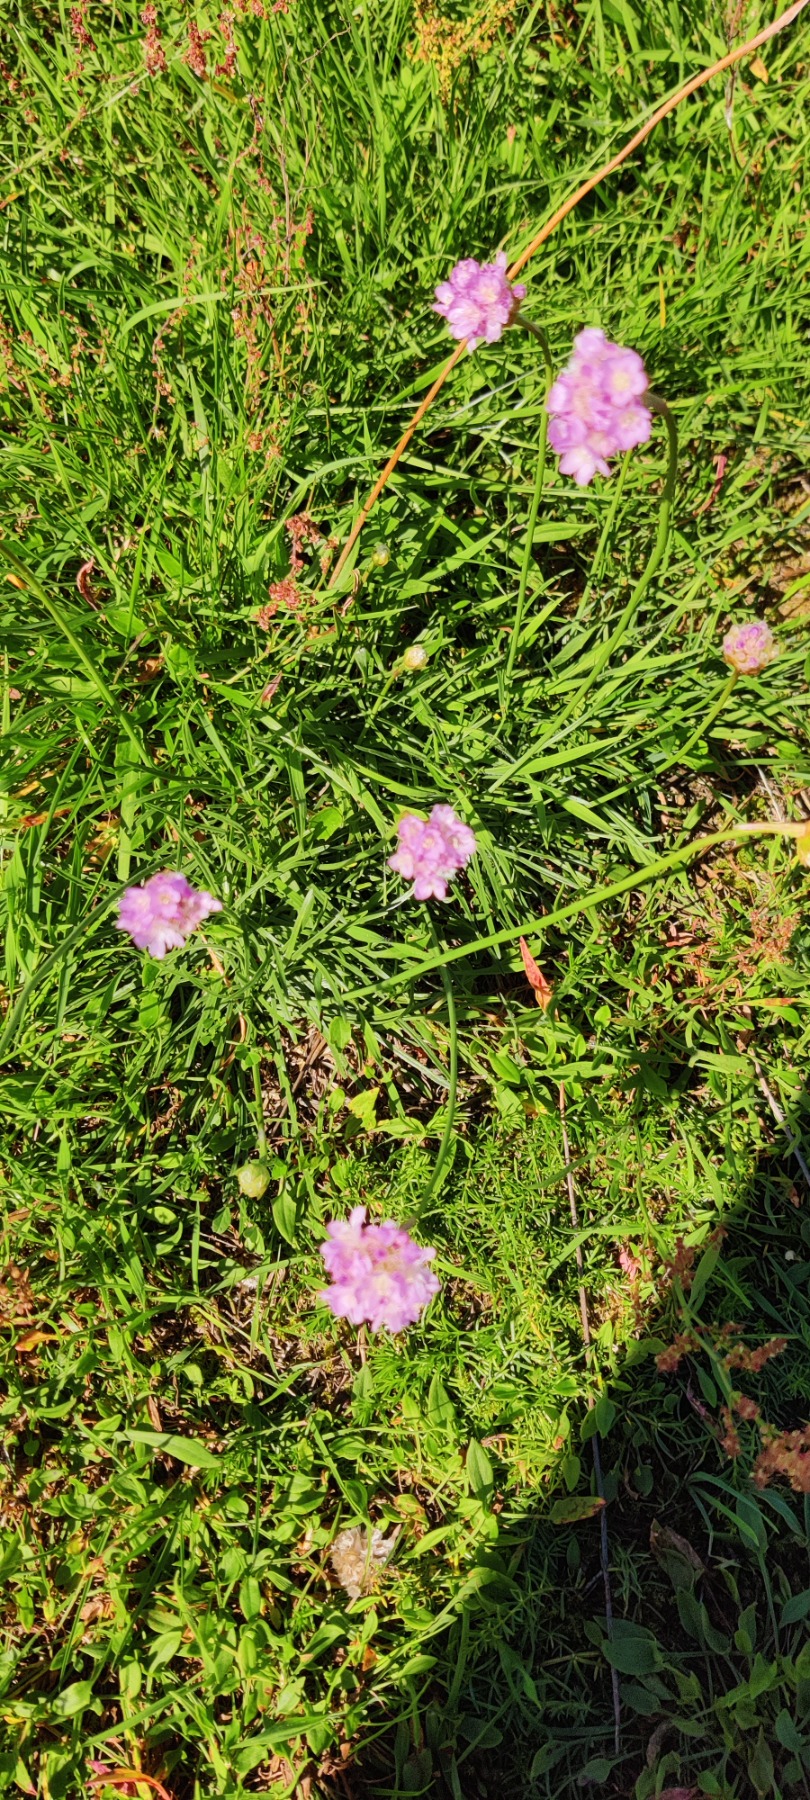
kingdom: Plantae
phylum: Tracheophyta
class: Magnoliopsida
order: Caryophyllales
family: Plumbaginaceae
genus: Armeria
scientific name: Armeria maritima
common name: Engelskgræs
